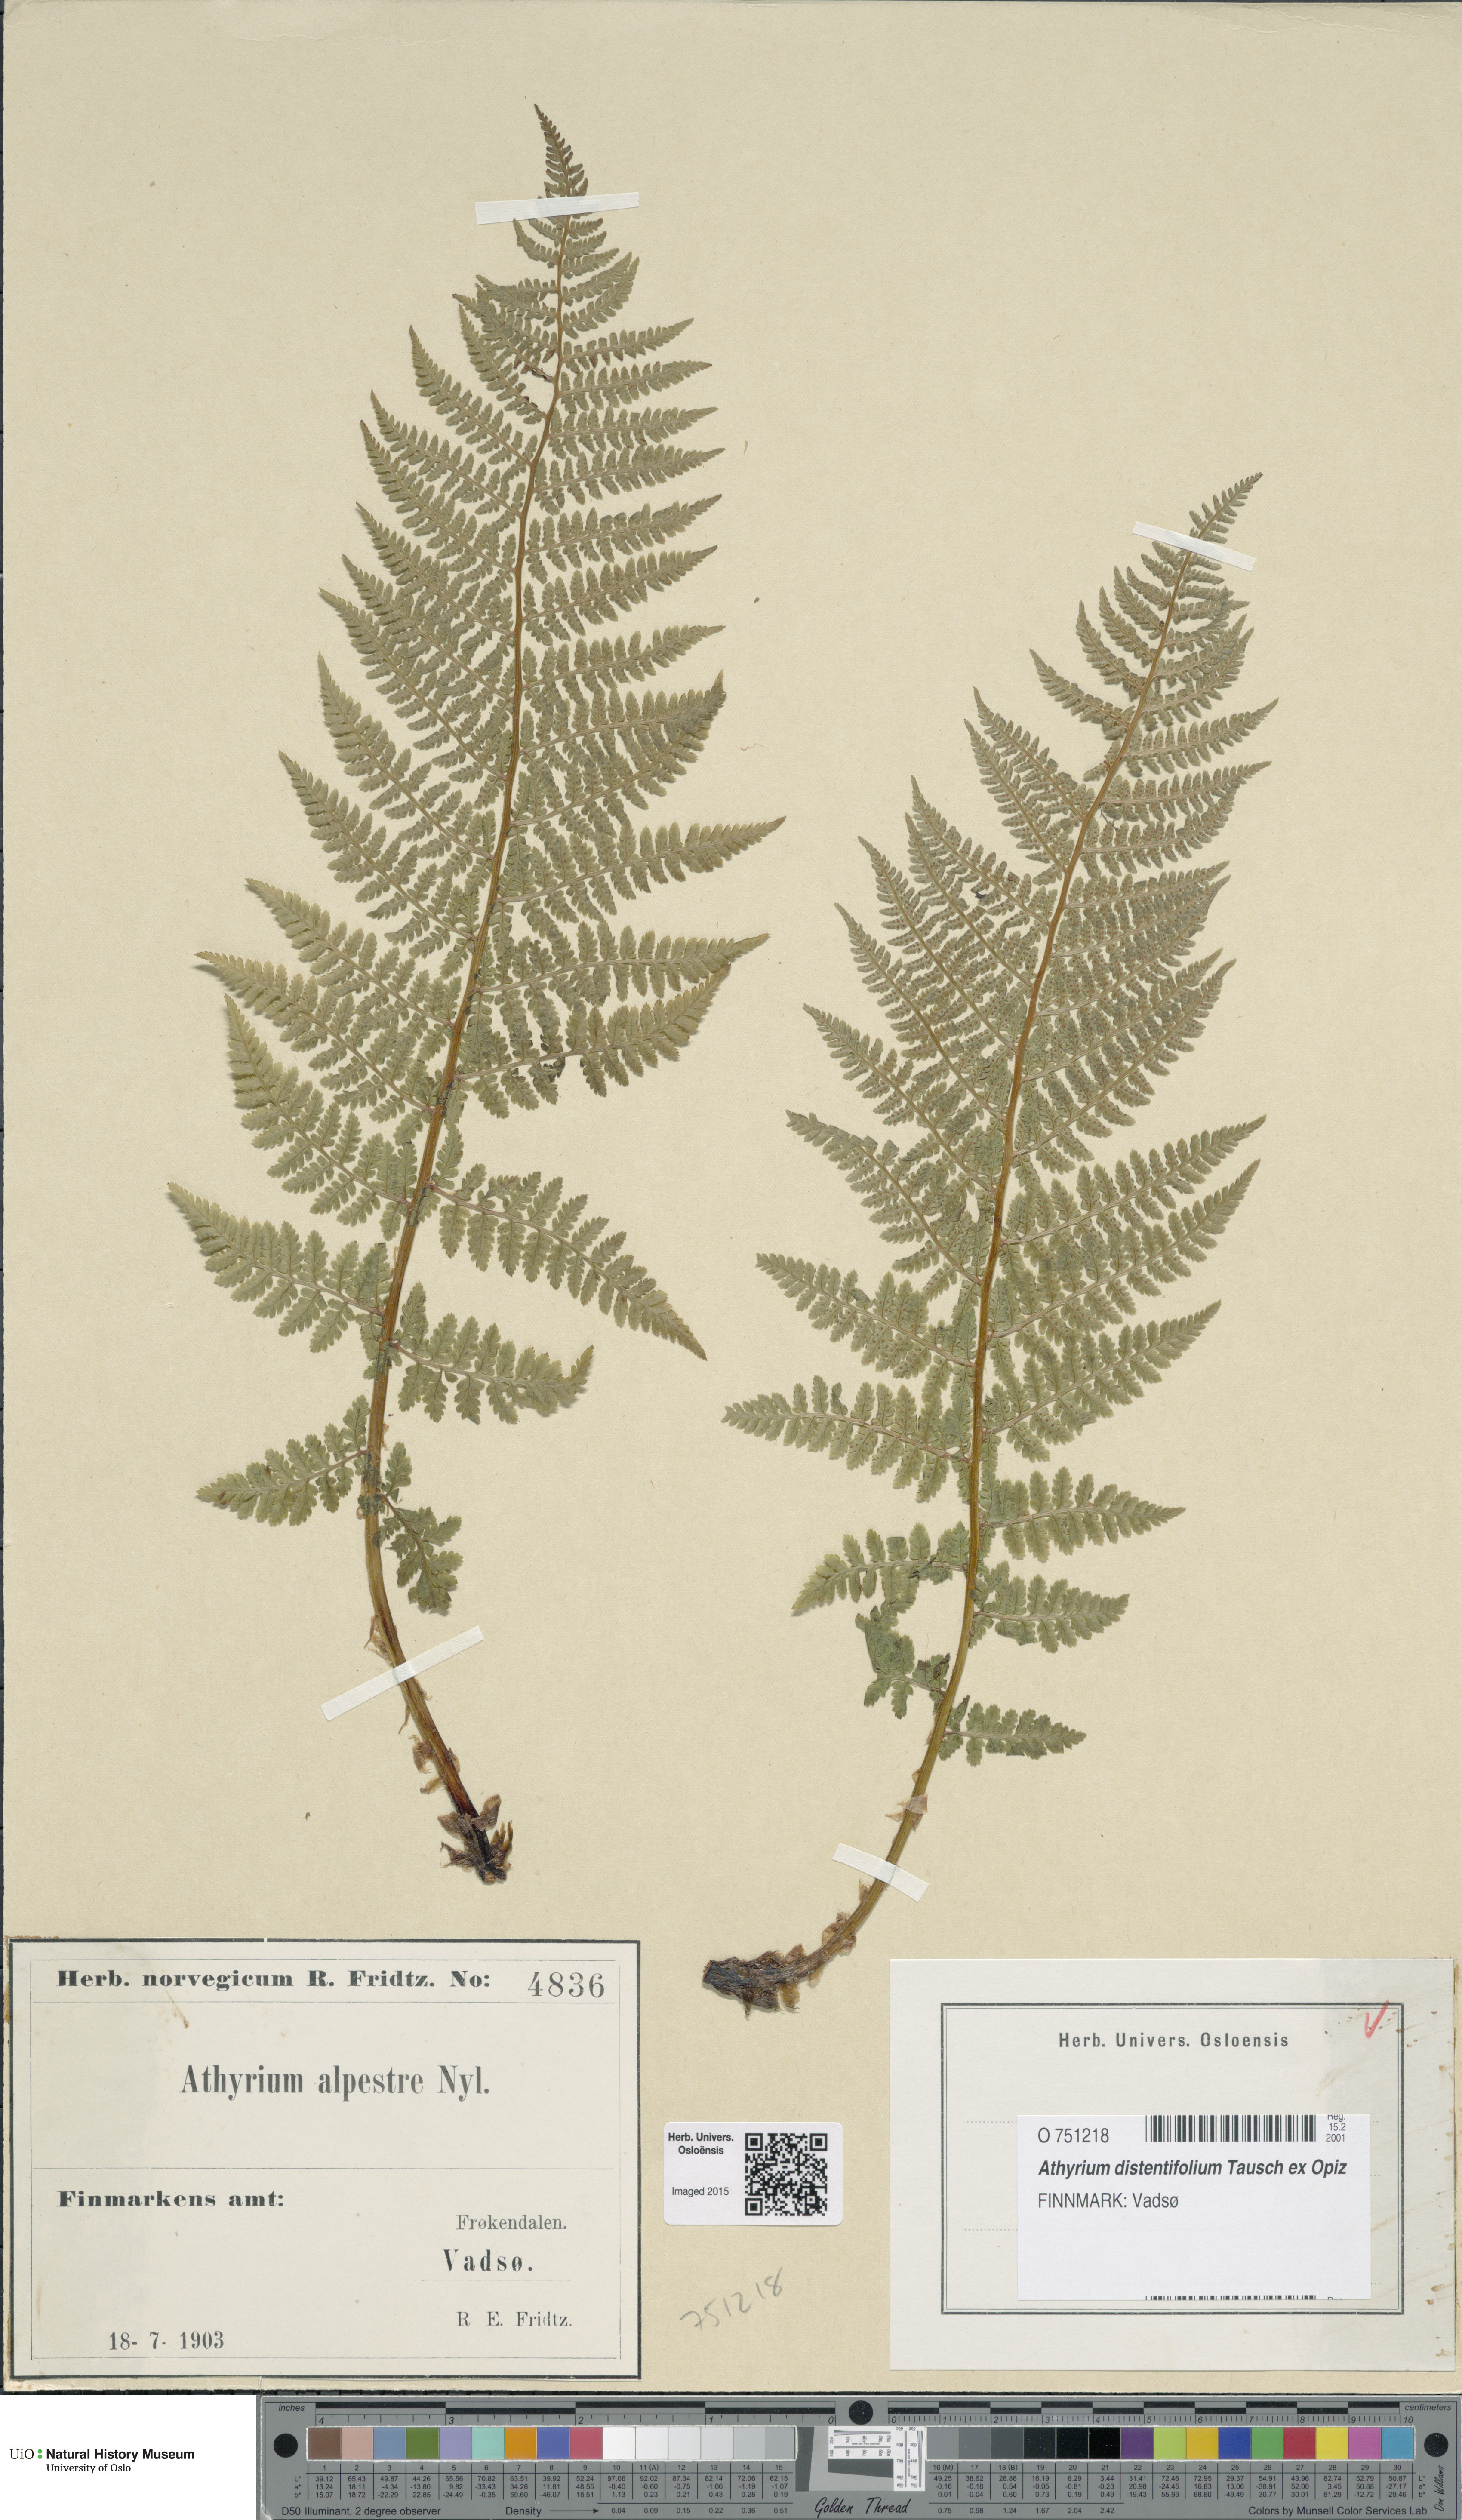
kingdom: Plantae
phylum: Tracheophyta
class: Polypodiopsida
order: Polypodiales
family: Athyriaceae
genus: Pseudathyrium
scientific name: Pseudathyrium alpestre
